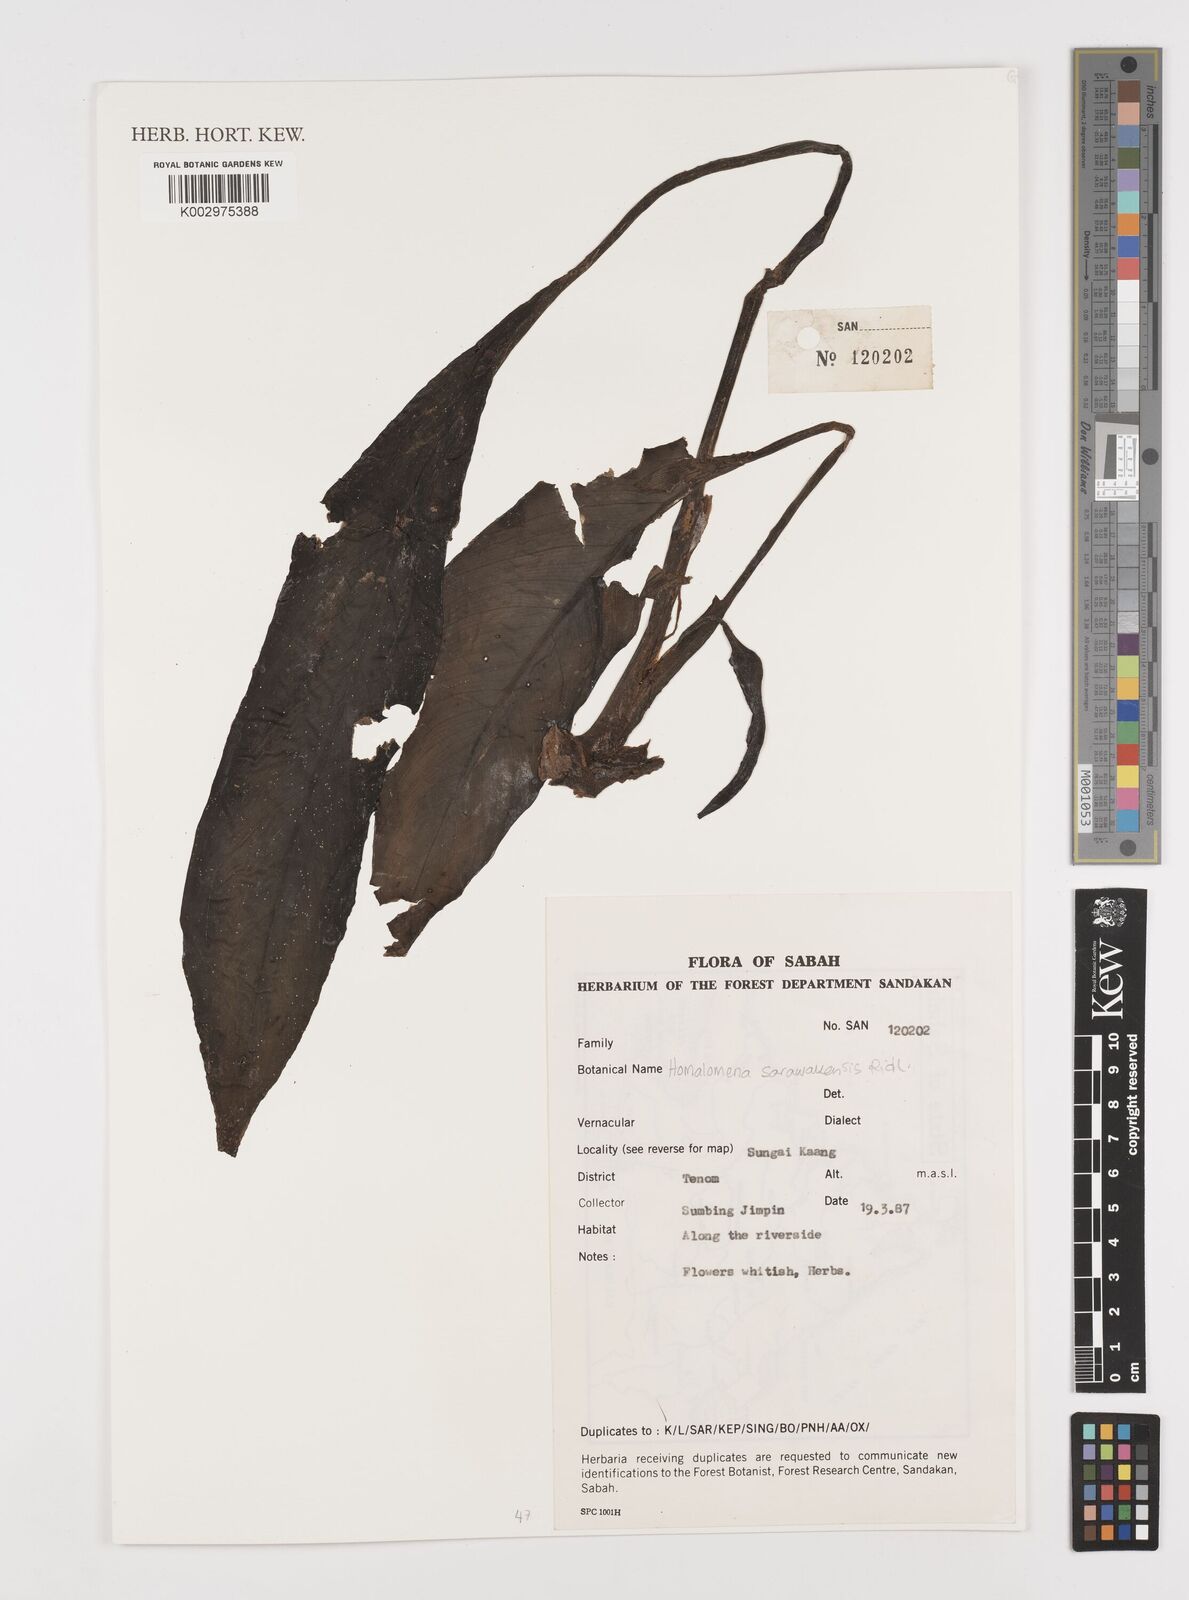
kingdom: Plantae
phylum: Tracheophyta
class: Liliopsida
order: Alismatales
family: Araceae
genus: Homalomena
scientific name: Homalomena insignis
